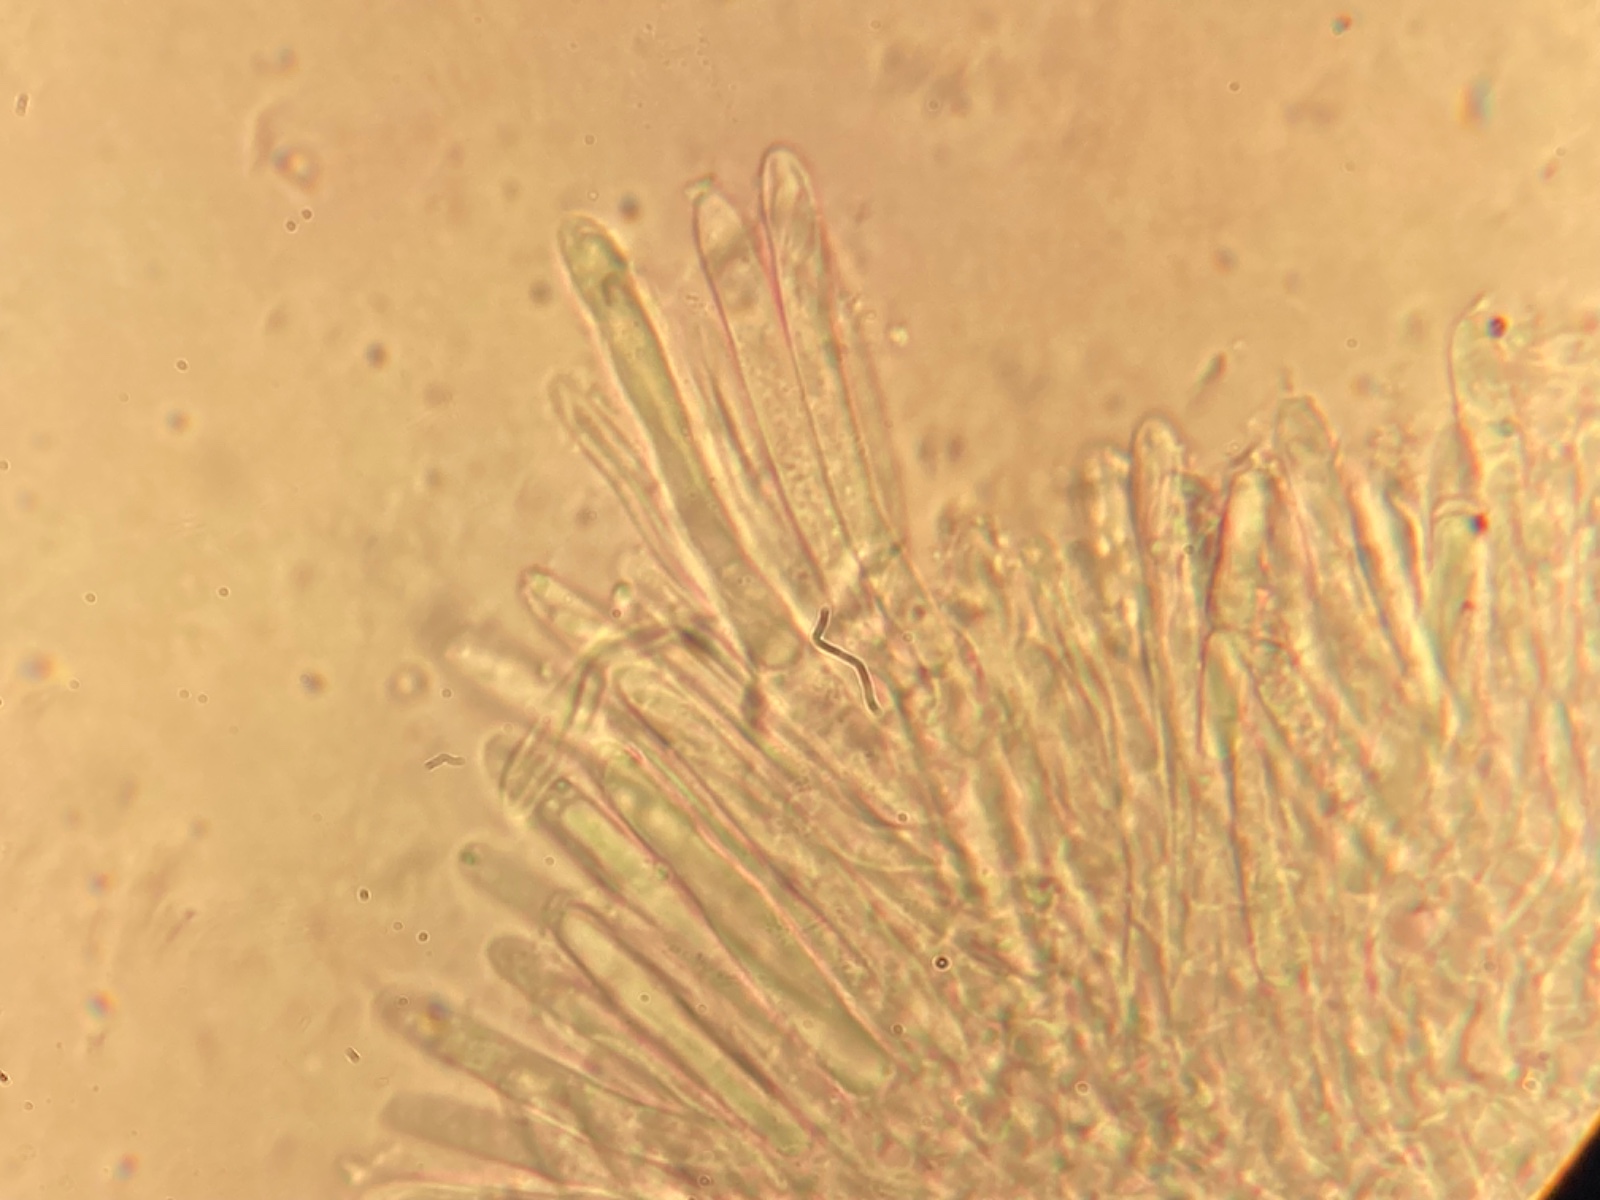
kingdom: Fungi
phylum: Ascomycota
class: Leotiomycetes
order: Helotiales
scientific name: Helotiales
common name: stilkskiveordenen
